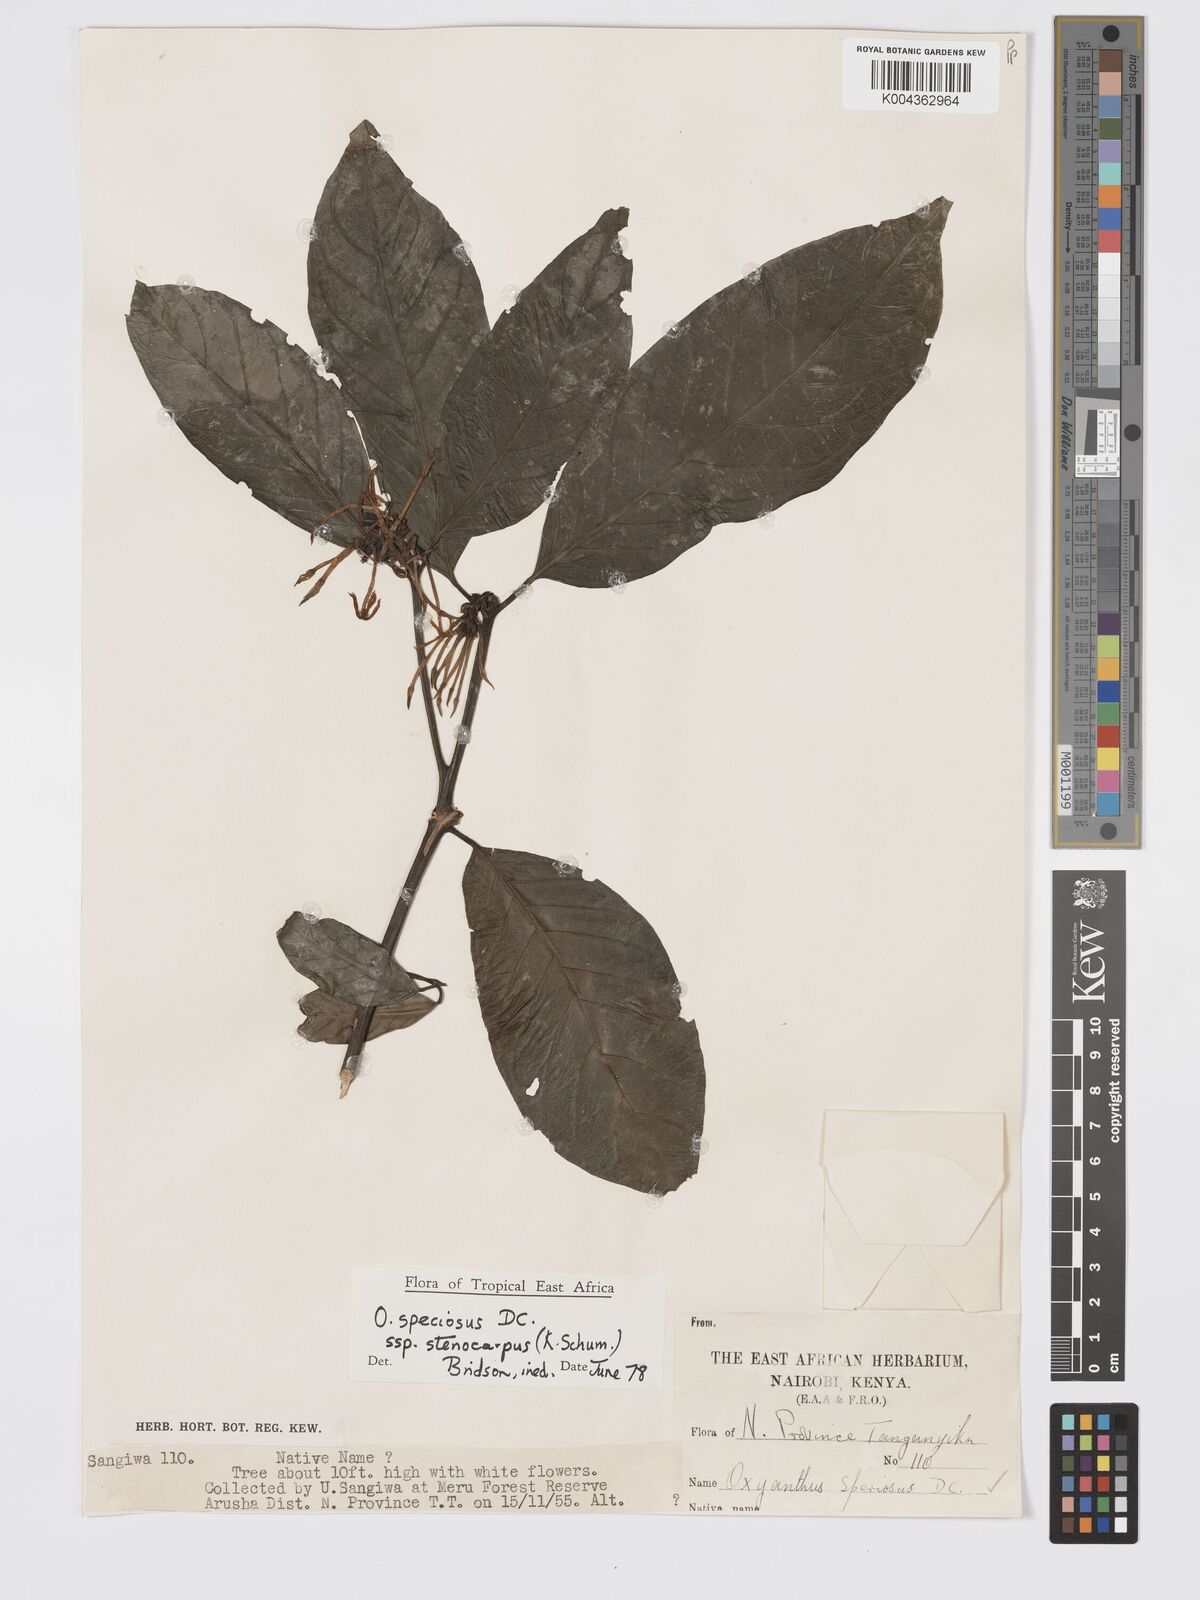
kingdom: Plantae
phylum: Tracheophyta
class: Magnoliopsida
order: Gentianales
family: Rubiaceae
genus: Oxyanthus
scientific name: Oxyanthus speciosus
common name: Whipstick loquat
